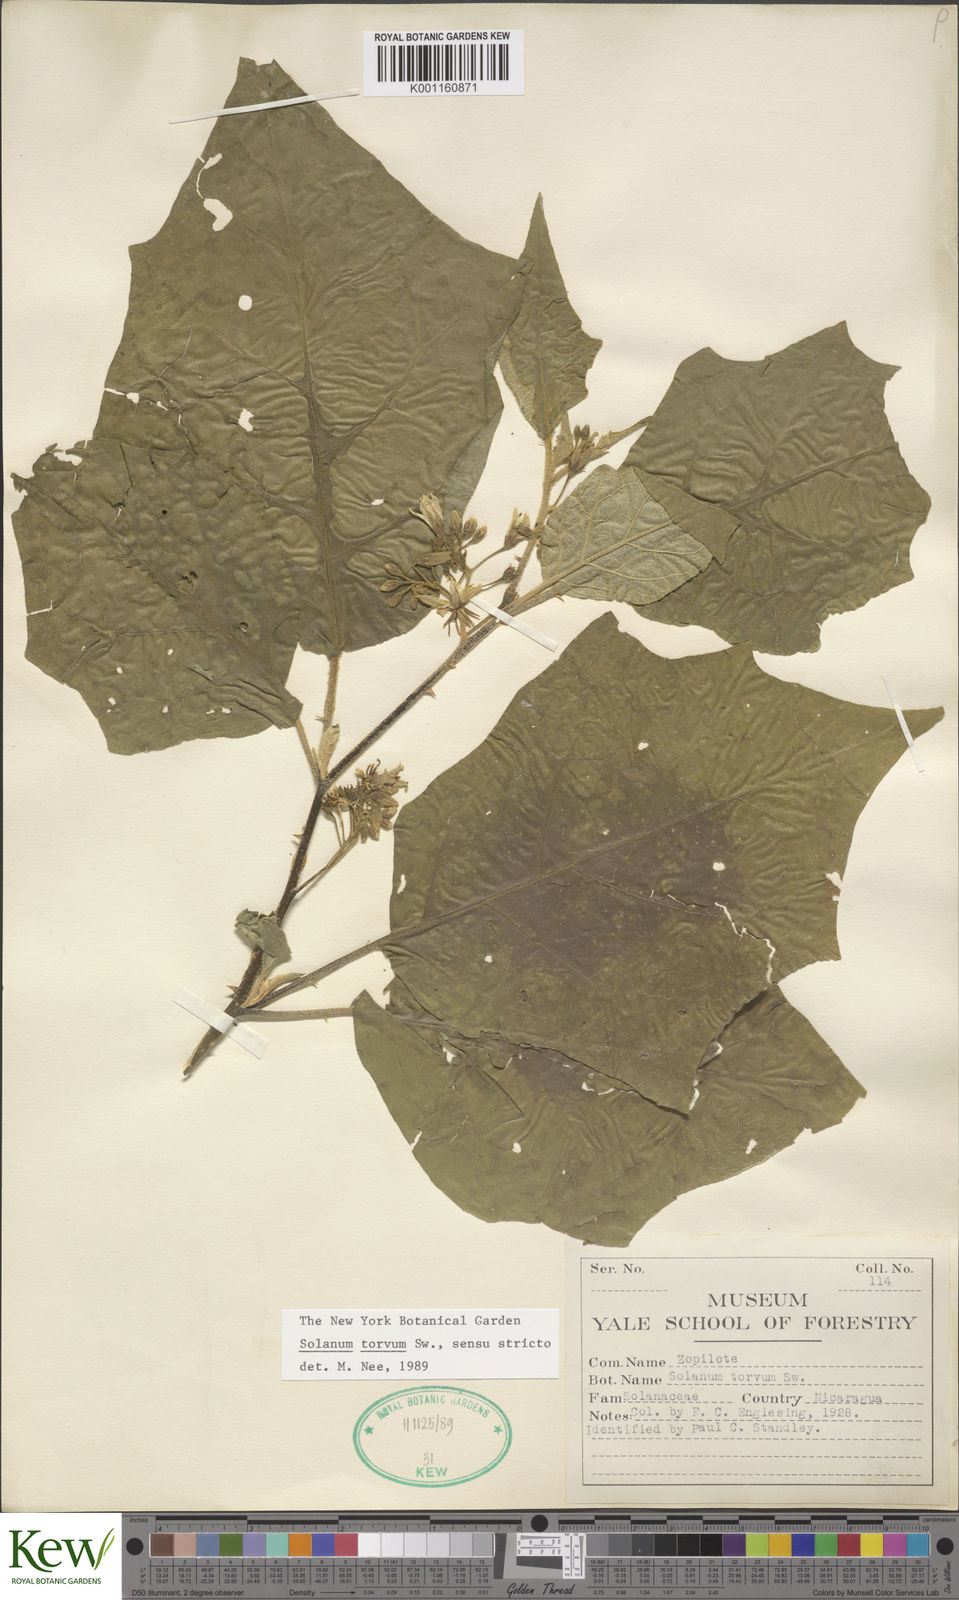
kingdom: Plantae
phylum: Tracheophyta
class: Magnoliopsida
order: Solanales
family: Solanaceae
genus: Solanum
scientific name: Solanum torvum
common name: Turkey berry
